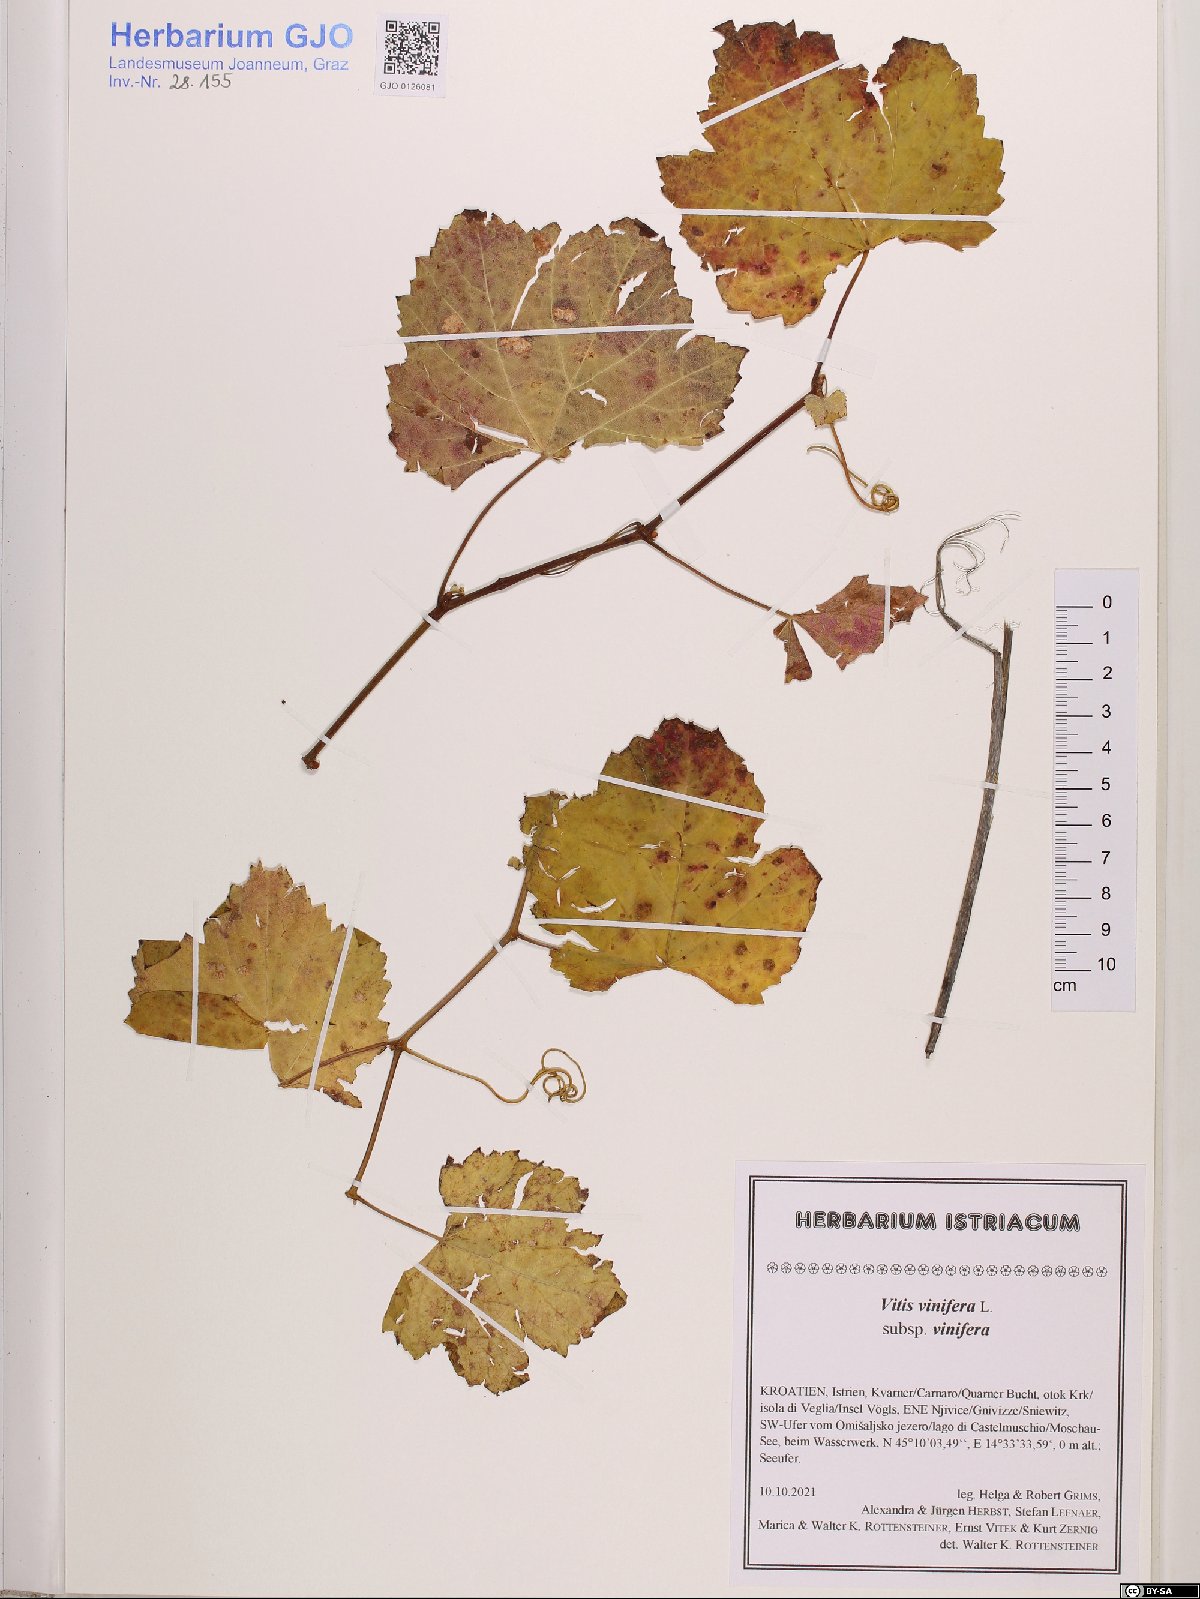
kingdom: Plantae
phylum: Tracheophyta
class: Magnoliopsida
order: Vitales
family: Vitaceae
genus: Vitis
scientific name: Vitis vinifera
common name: Grape-vine
